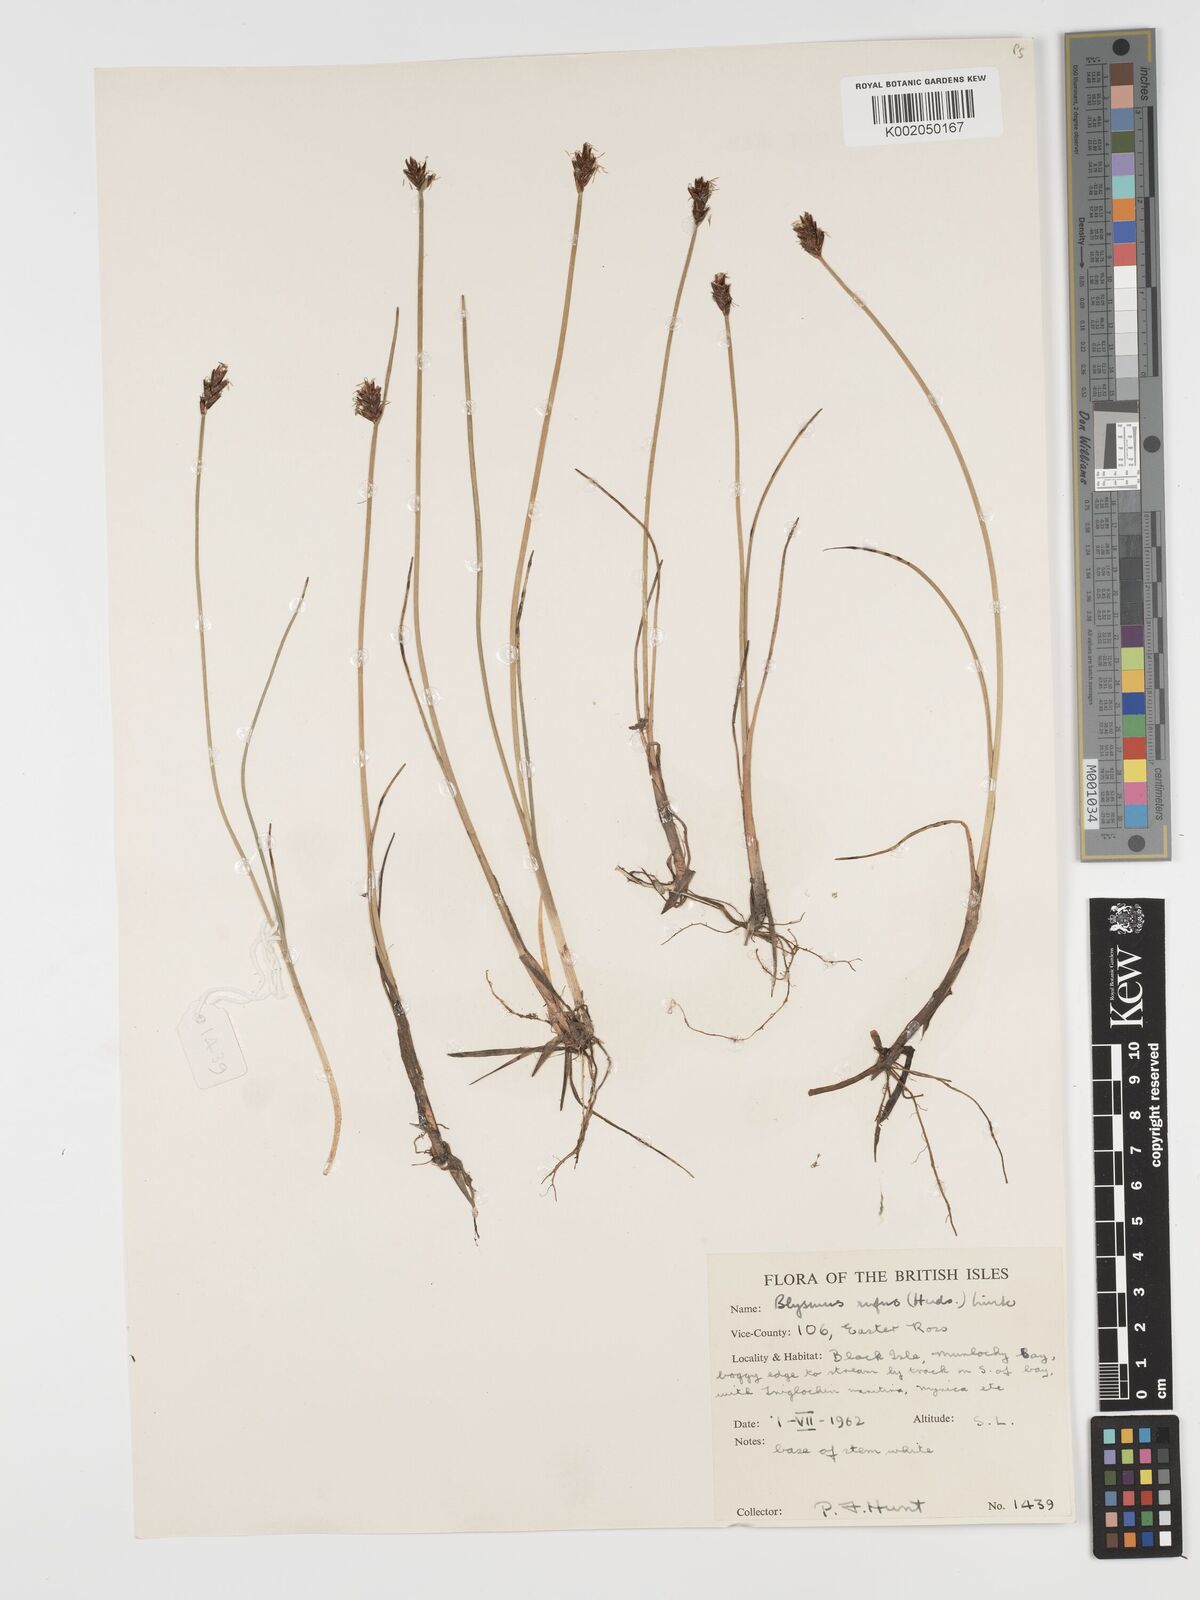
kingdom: Plantae
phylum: Tracheophyta
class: Liliopsida
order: Poales
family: Cyperaceae
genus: Blysmus
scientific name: Blysmus rufus
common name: Saltmarsh flat-sedge
